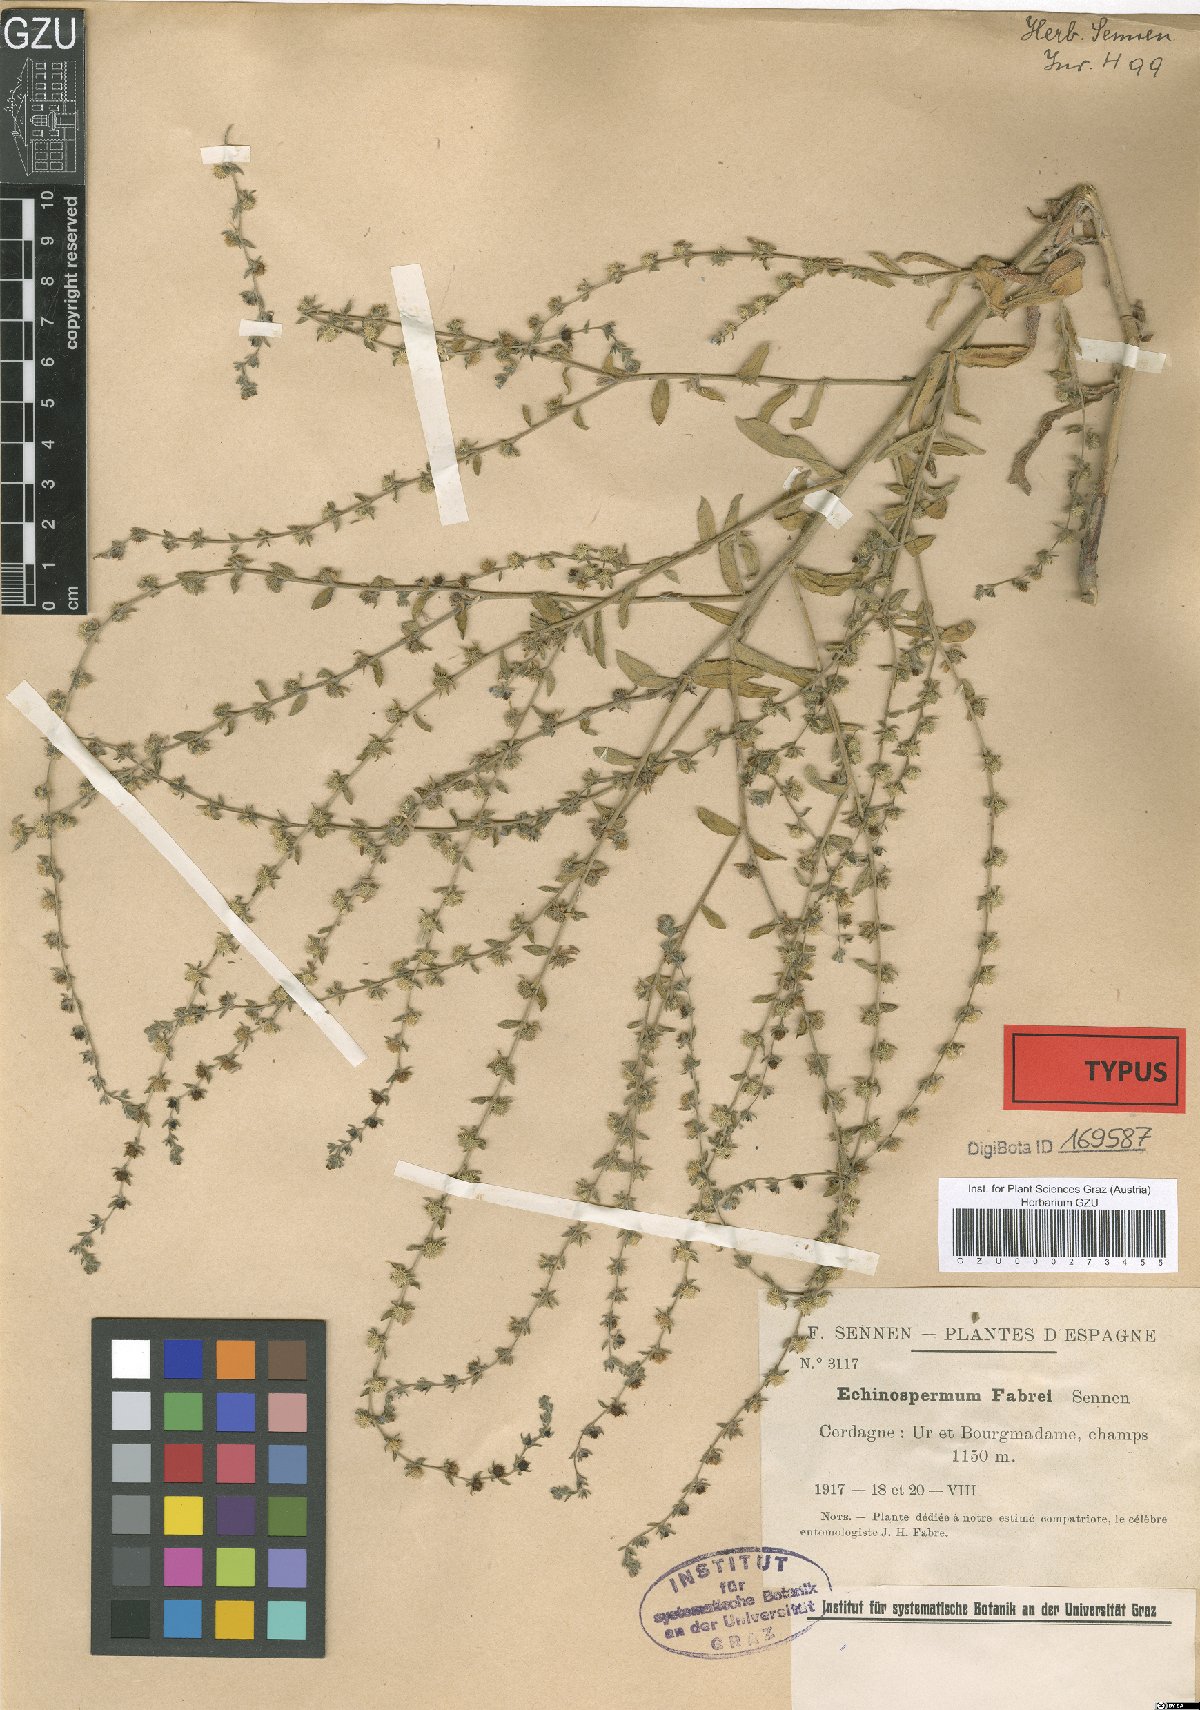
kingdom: Plantae
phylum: Tracheophyta
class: Magnoliopsida
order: Boraginales
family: Boraginaceae
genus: Lappula
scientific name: Lappula squarrosa
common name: European stickseed
